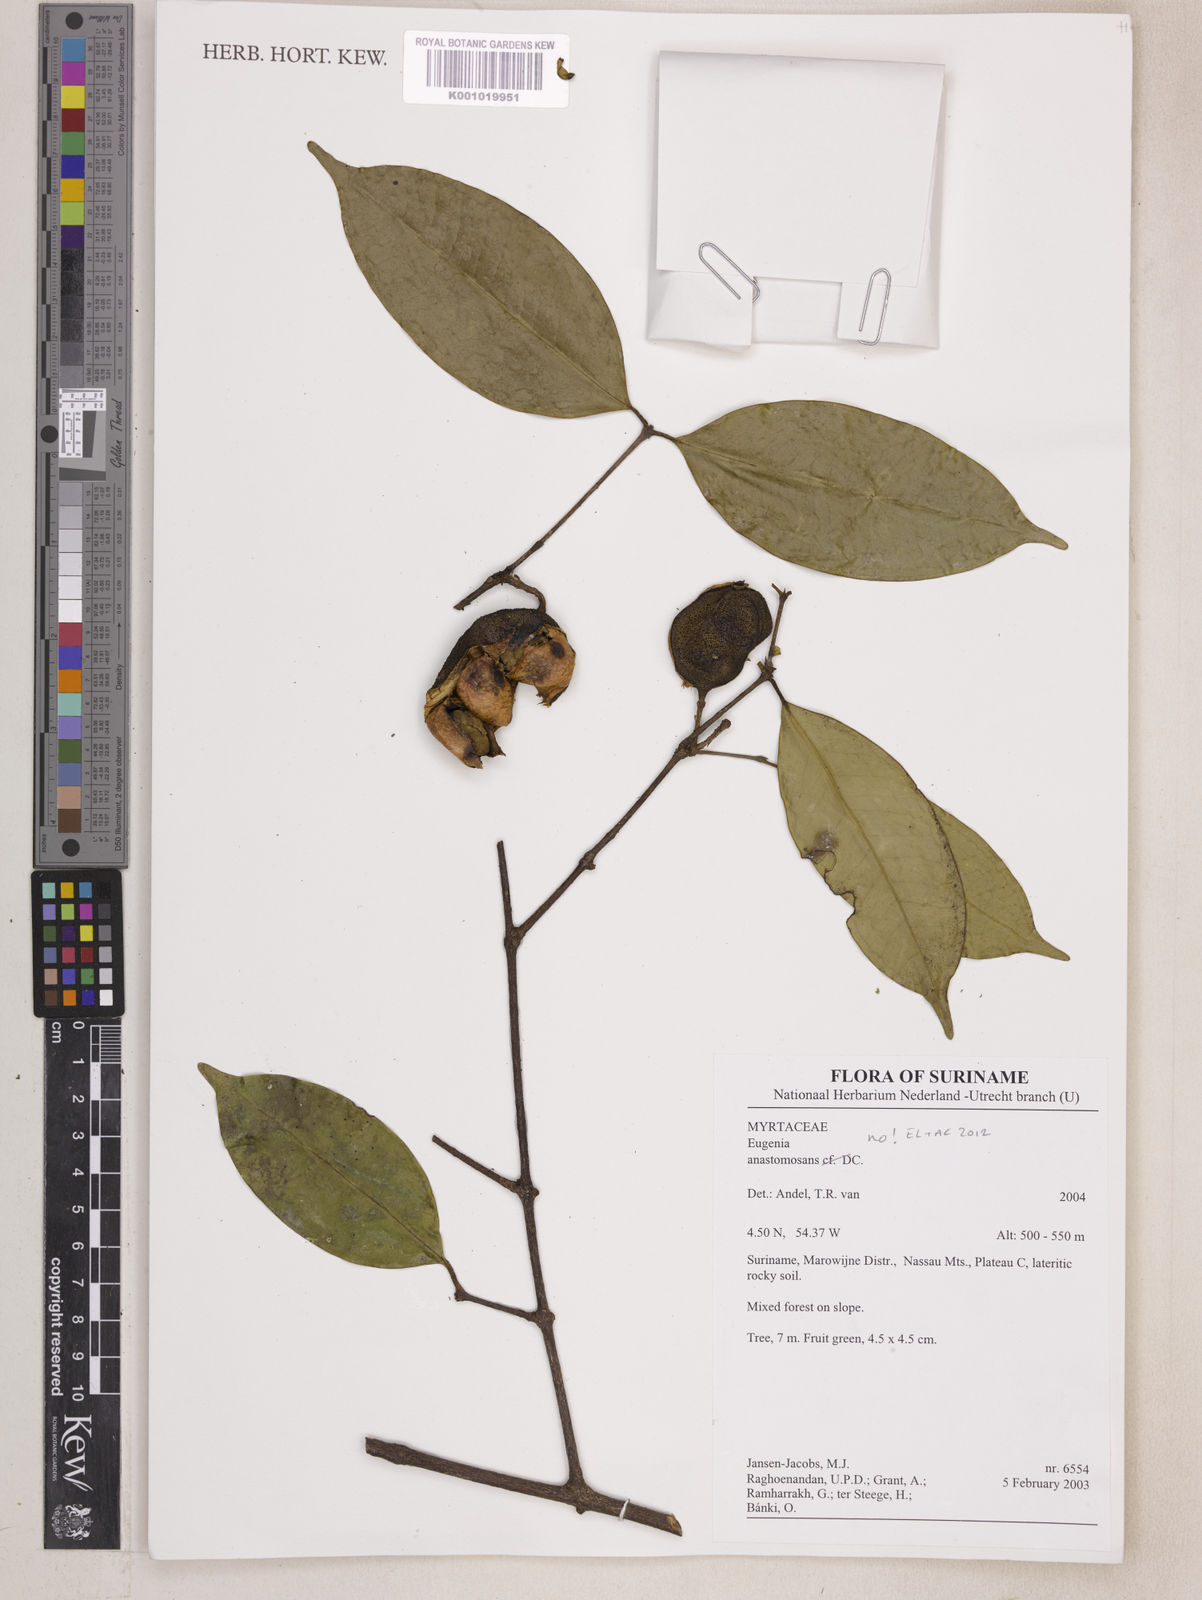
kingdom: Plantae
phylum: Tracheophyta
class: Magnoliopsida
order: Myrtales
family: Myrtaceae
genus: Eugenia
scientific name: Eugenia wentii
